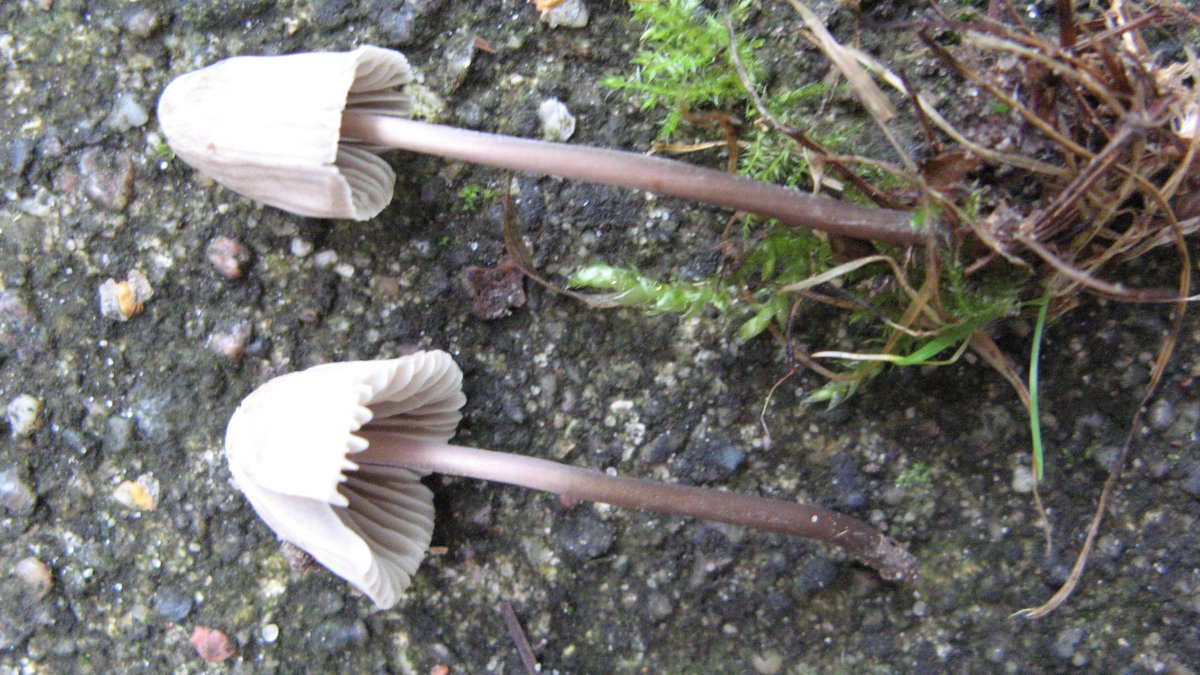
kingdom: Fungi
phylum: Basidiomycota
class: Agaricomycetes
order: Agaricales
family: Mycenaceae
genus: Mycena
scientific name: Mycena aetites
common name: plæne-huesvamp
